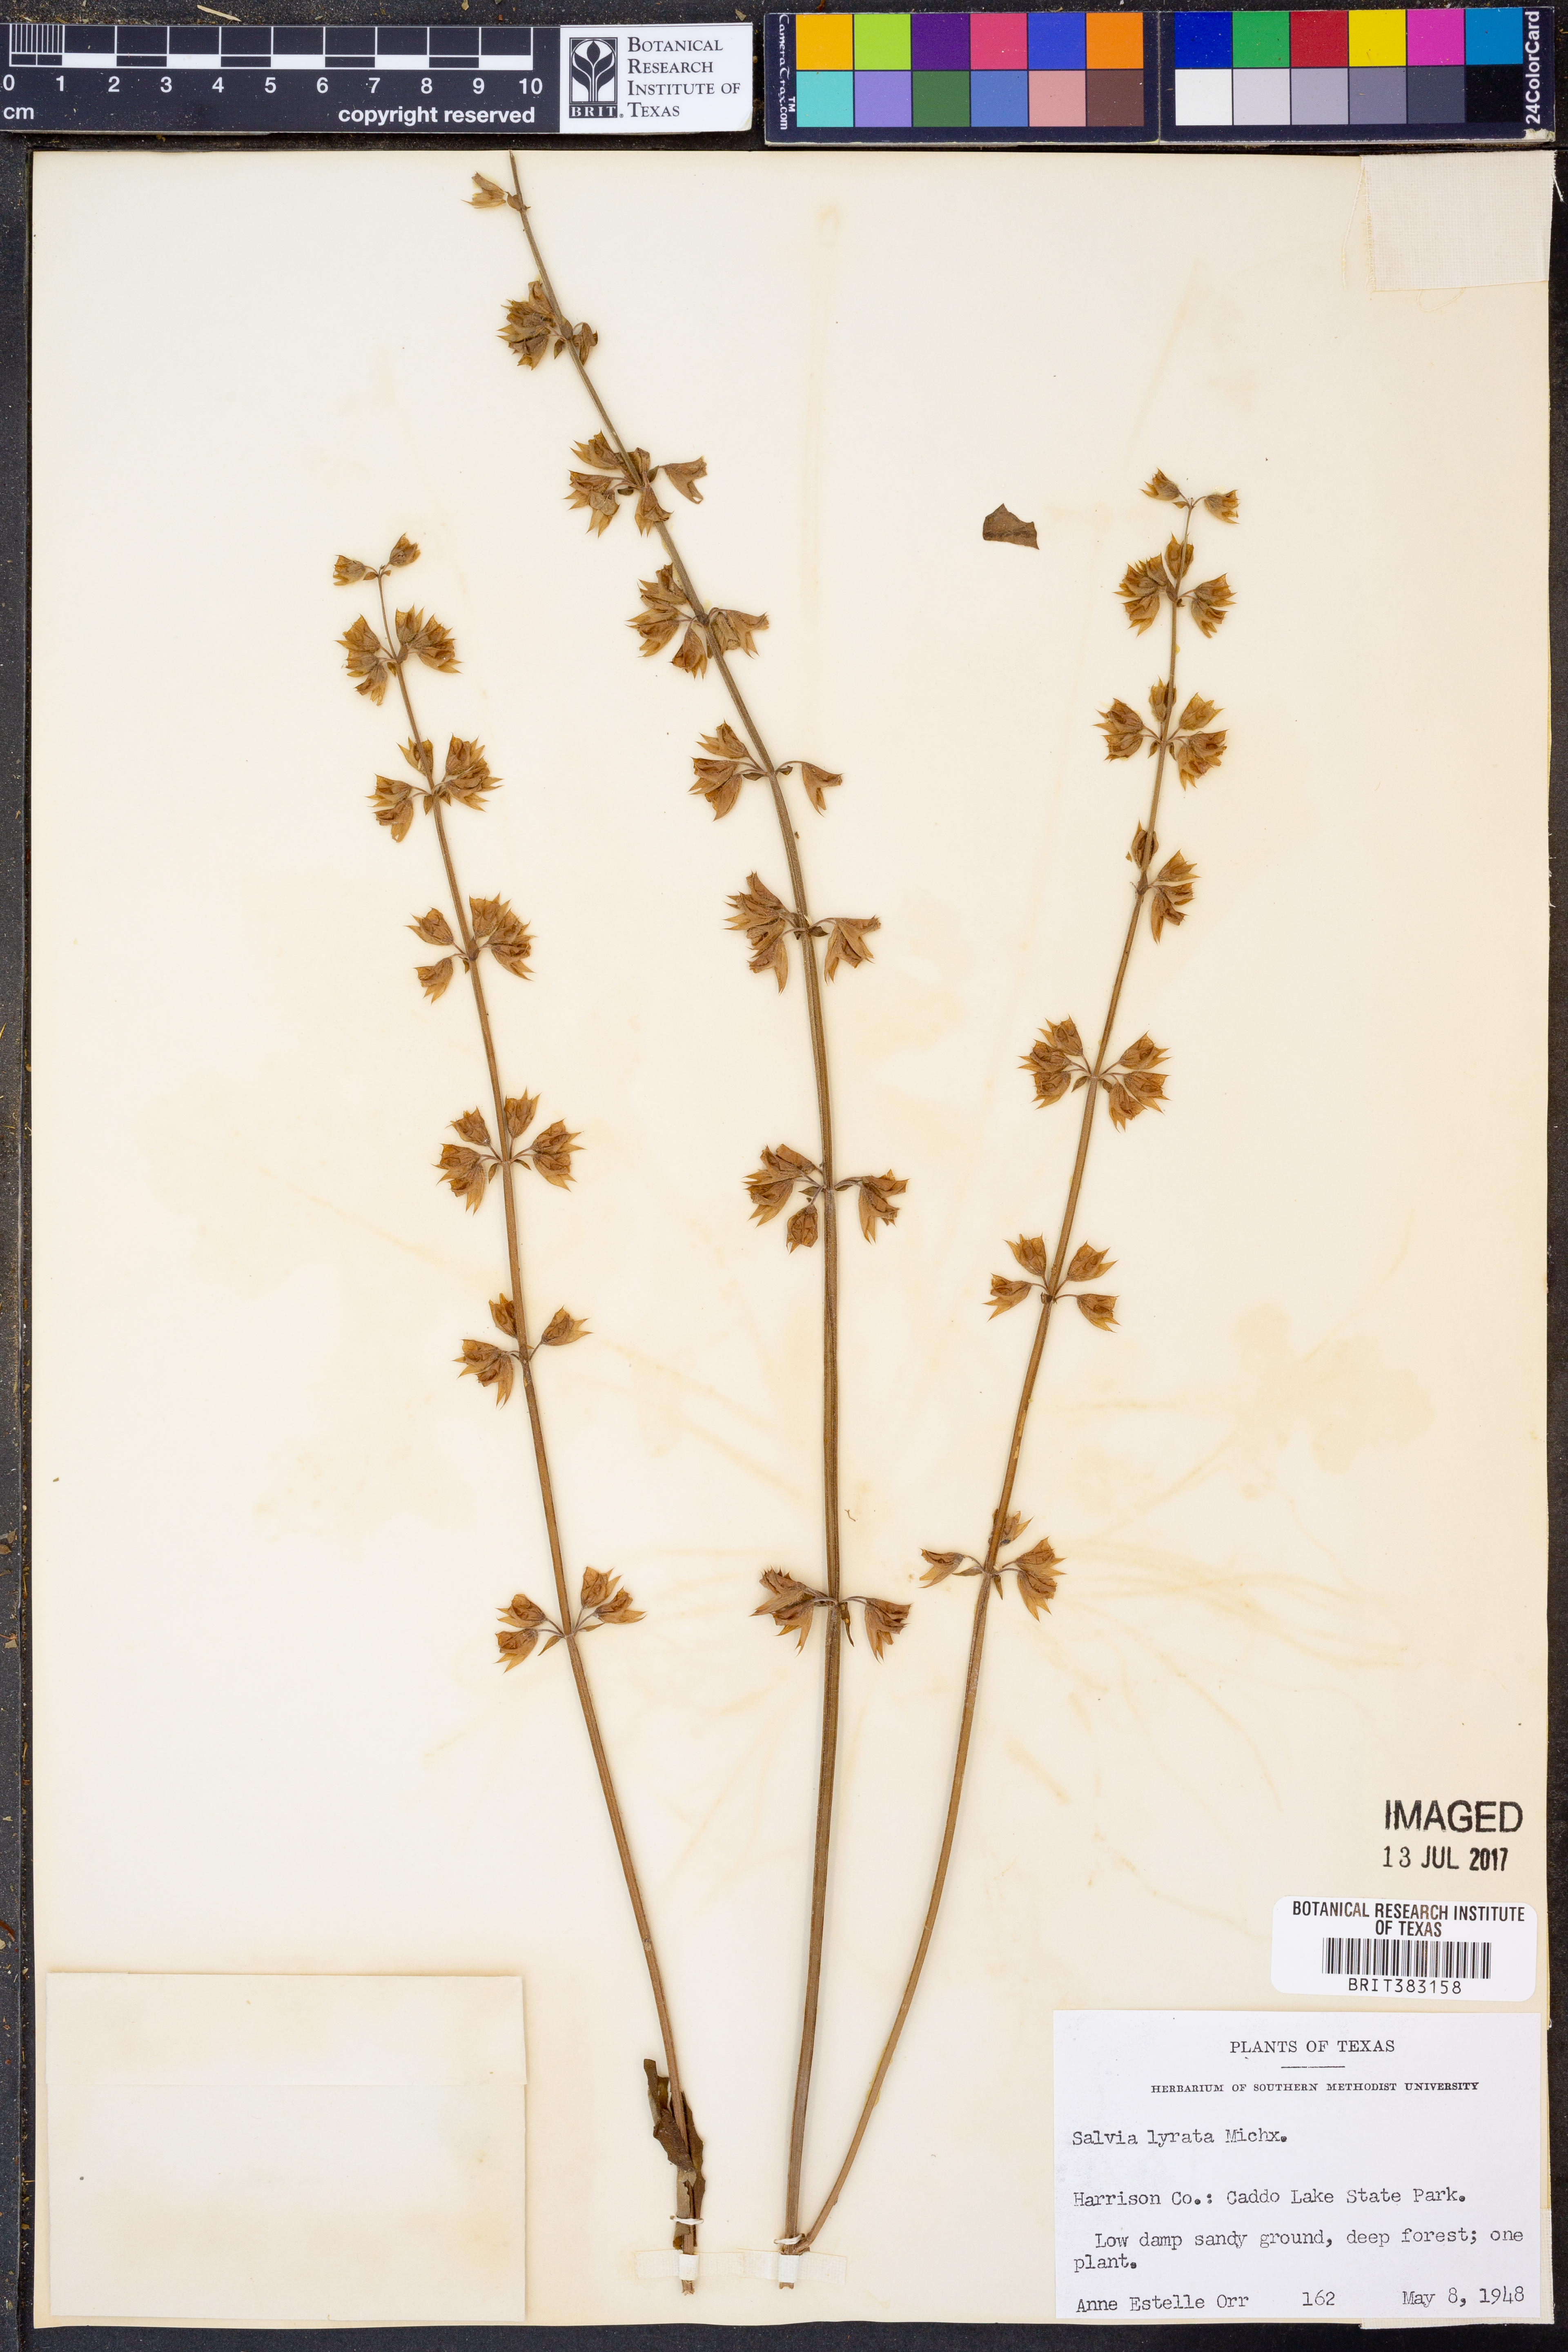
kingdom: Plantae
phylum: Tracheophyta
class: Magnoliopsida
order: Lamiales
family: Lamiaceae
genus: Salvia
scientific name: Salvia lyrata
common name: Cancerweed
